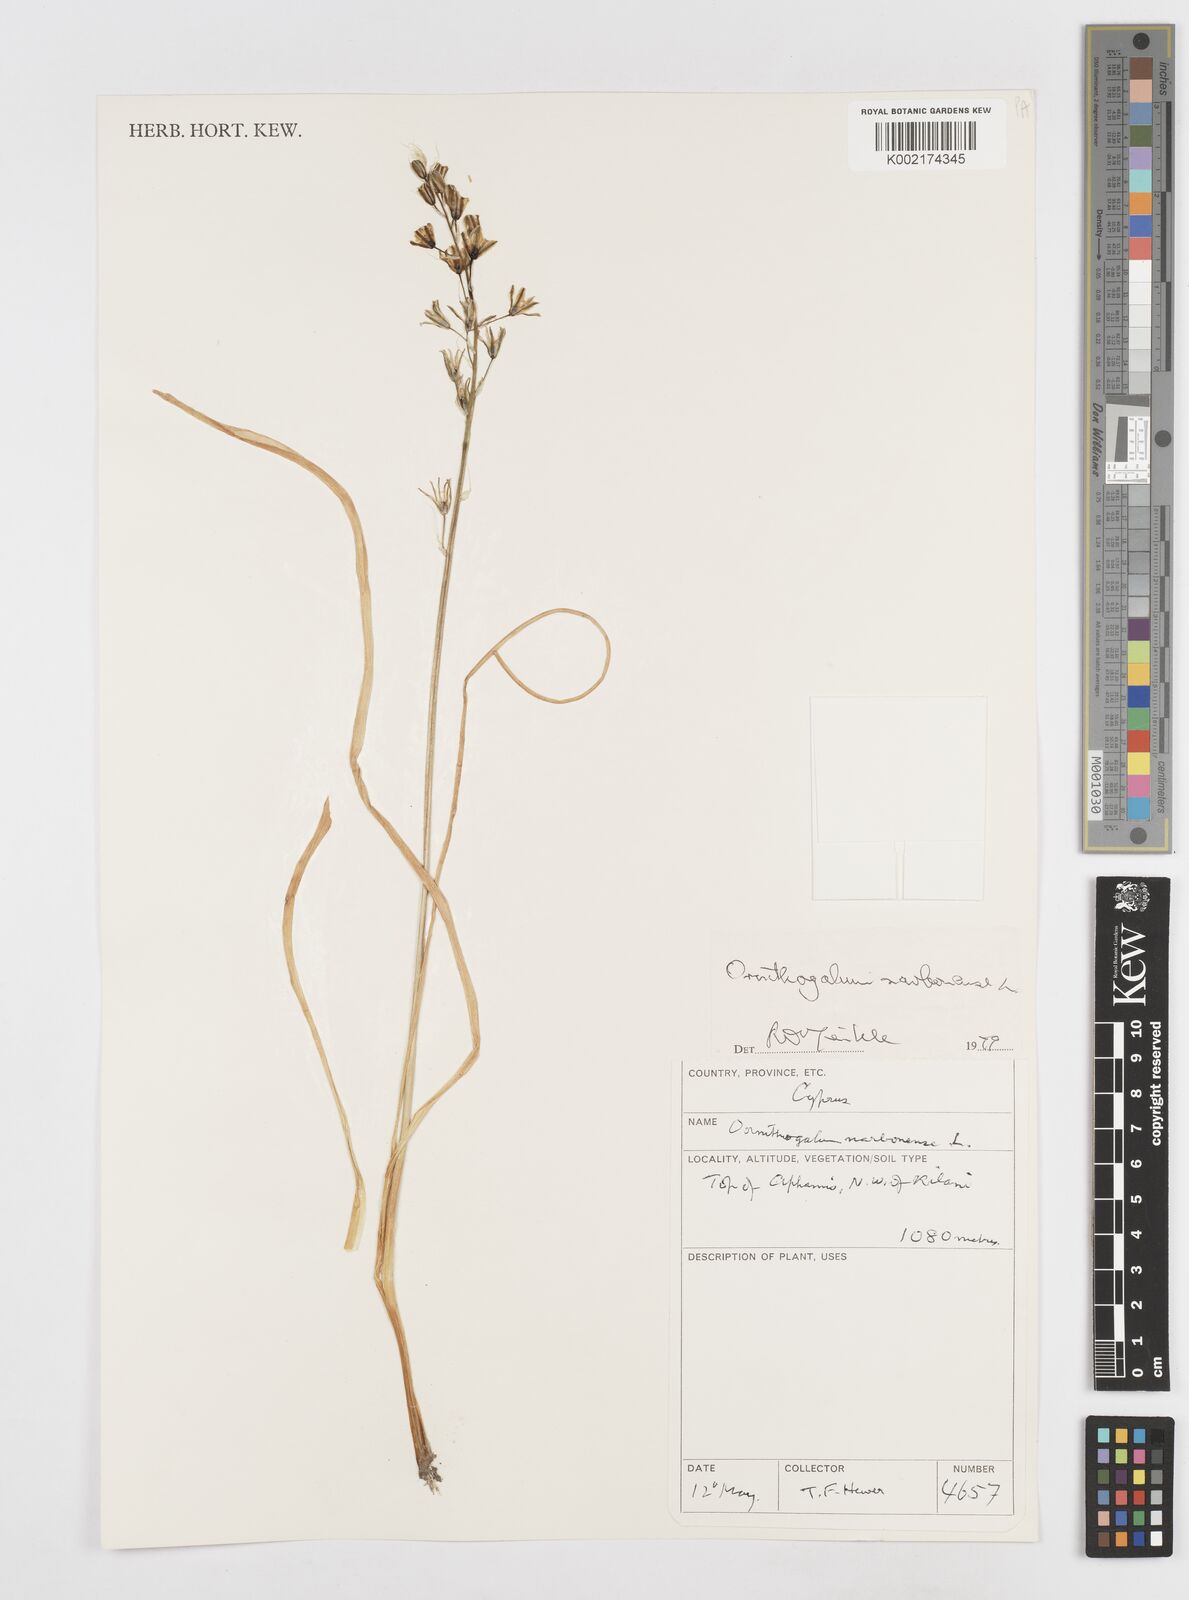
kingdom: Plantae
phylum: Tracheophyta
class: Liliopsida
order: Asparagales
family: Asparagaceae
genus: Ornithogalum
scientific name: Ornithogalum narbonense
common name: Bath-asparagus
